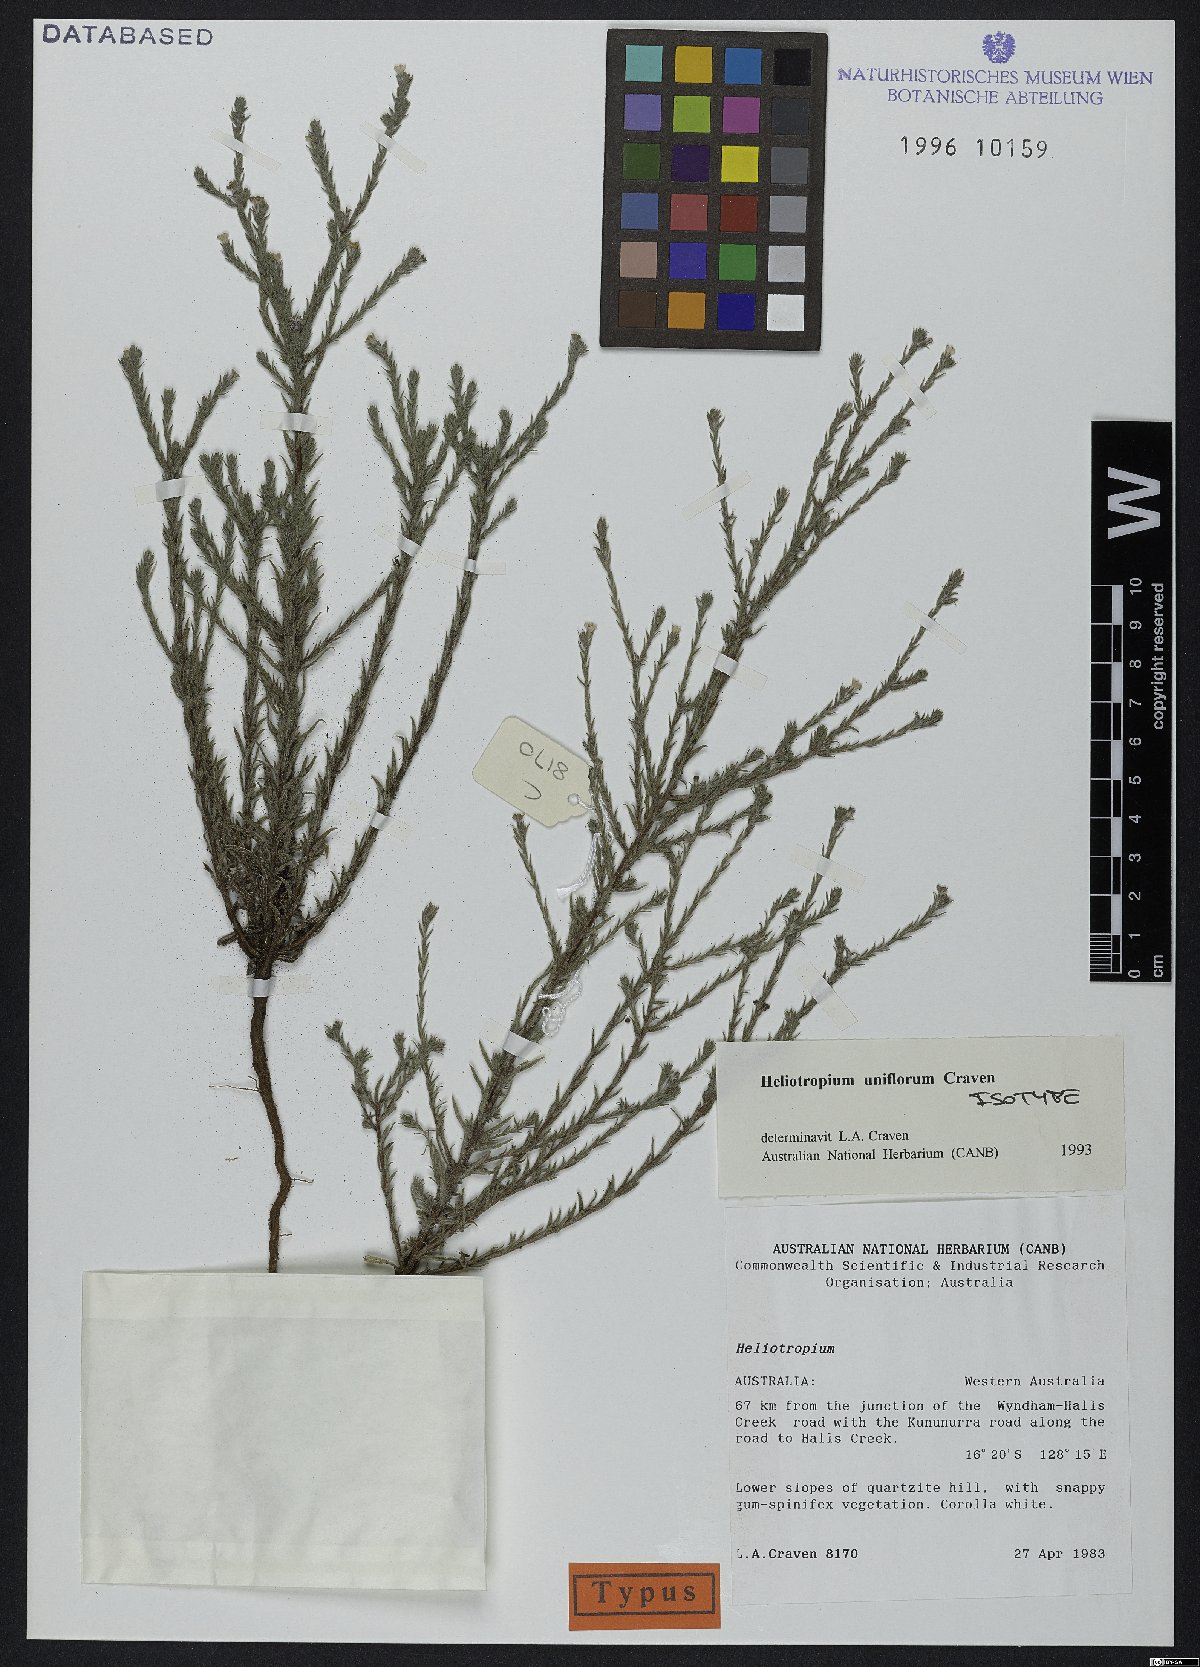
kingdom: Plantae
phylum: Tracheophyta
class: Magnoliopsida
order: Boraginales
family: Heliotropiaceae
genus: Euploca
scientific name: Euploca uniflora
